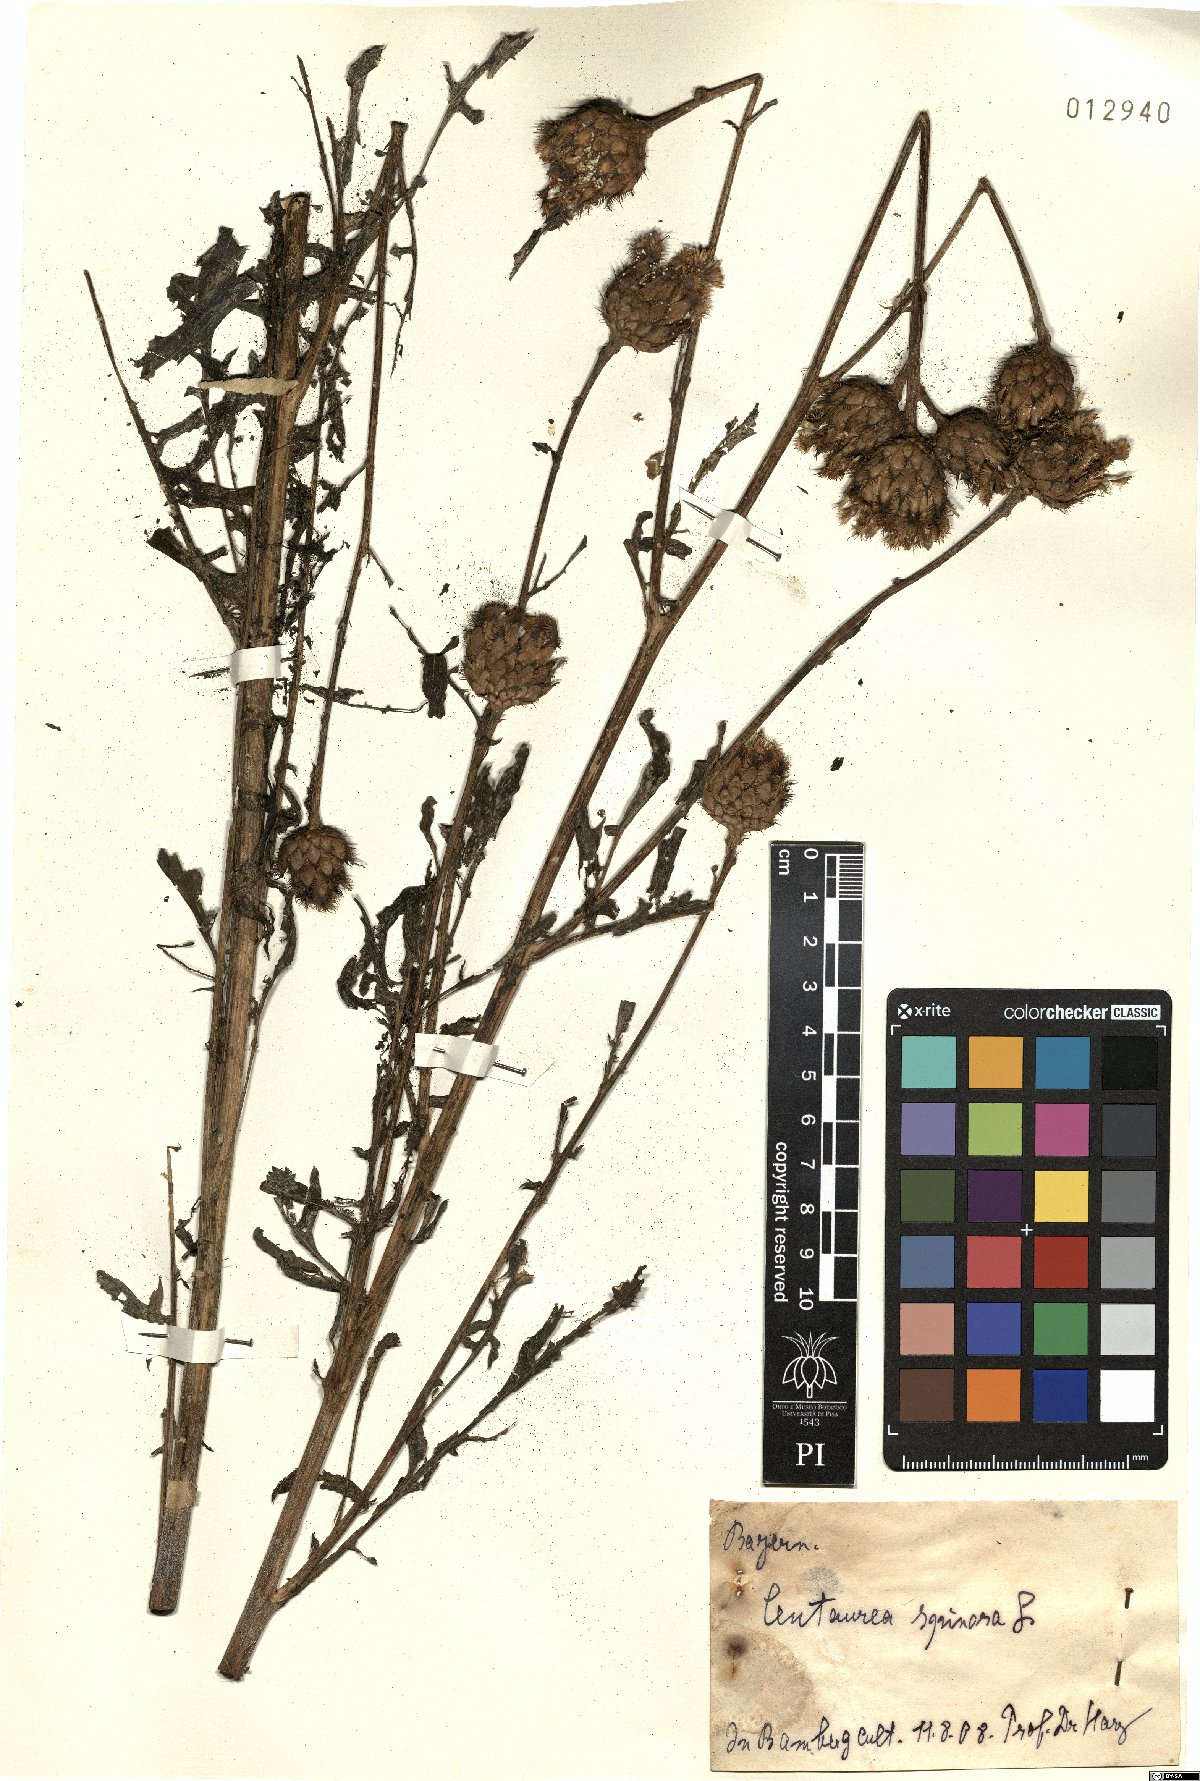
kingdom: Plantae
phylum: Tracheophyta
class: Magnoliopsida
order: Asterales
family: Asteraceae
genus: Centaurea
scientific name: Centaurea spinosa
